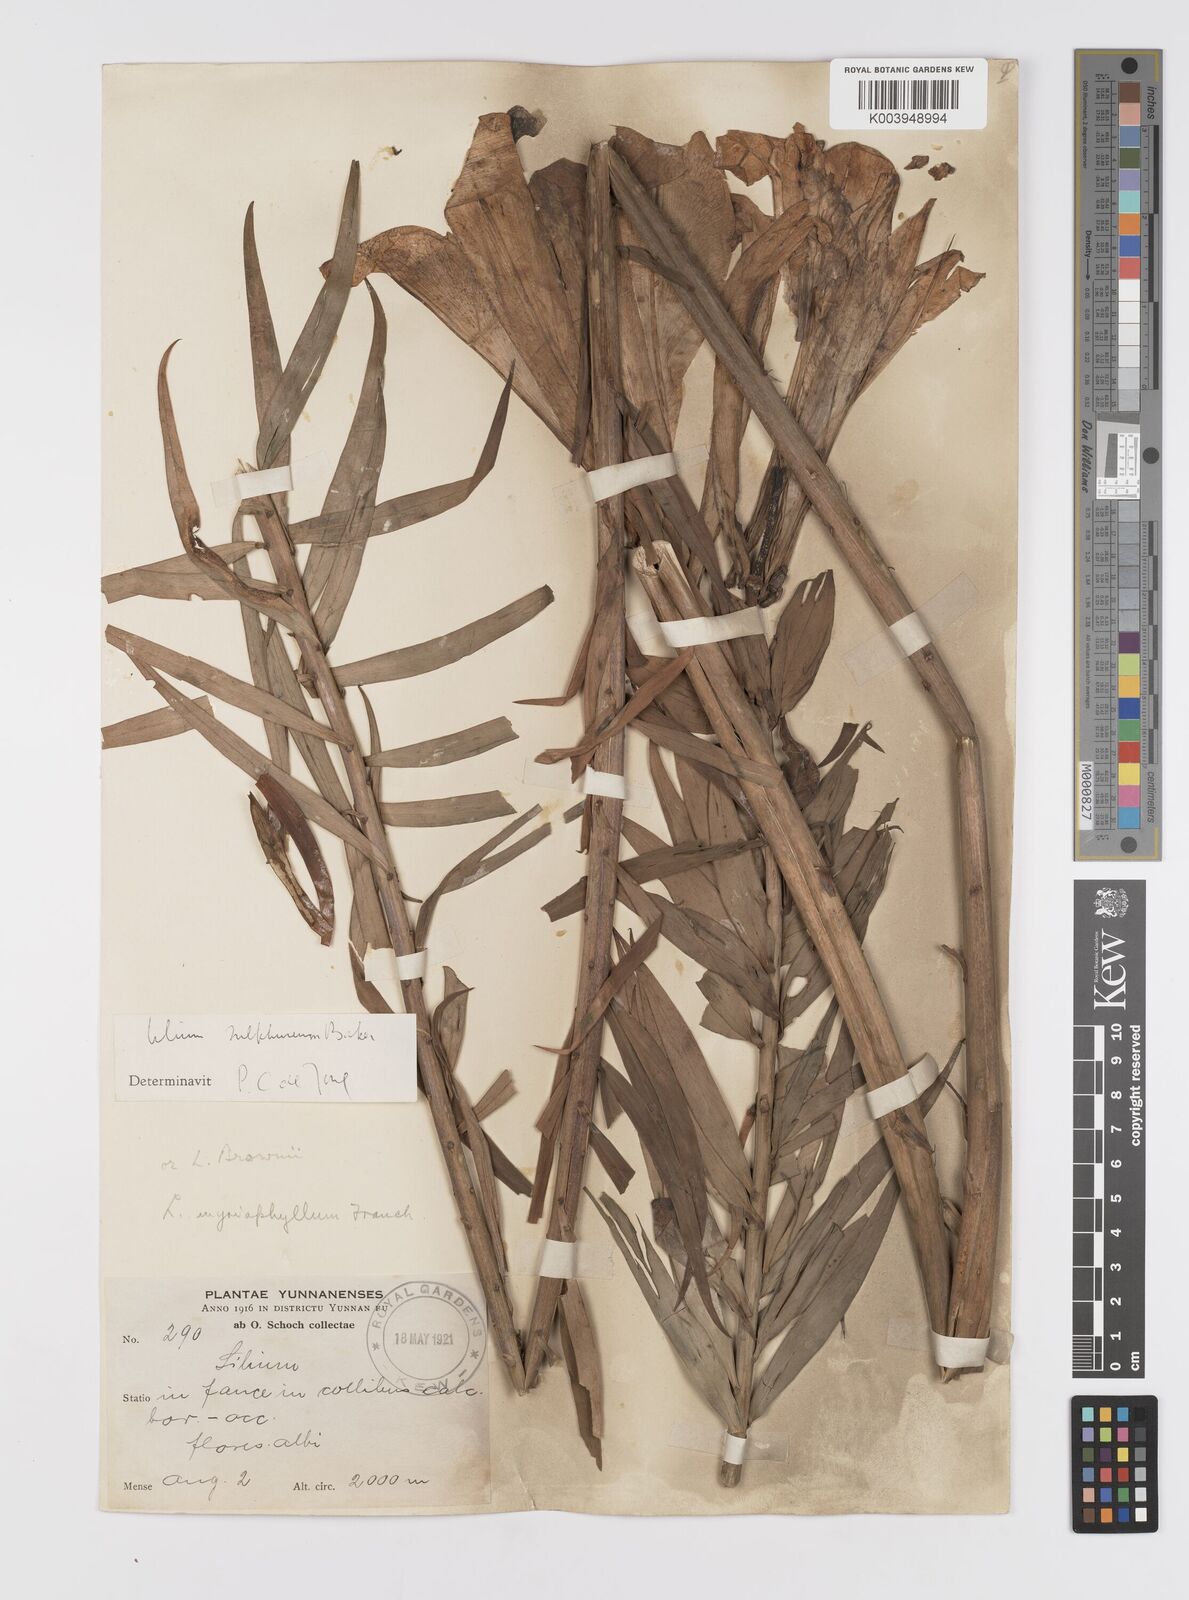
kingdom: Plantae
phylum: Tracheophyta
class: Liliopsida
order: Liliales
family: Liliaceae
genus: Lilium
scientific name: Lilium sulphureum
